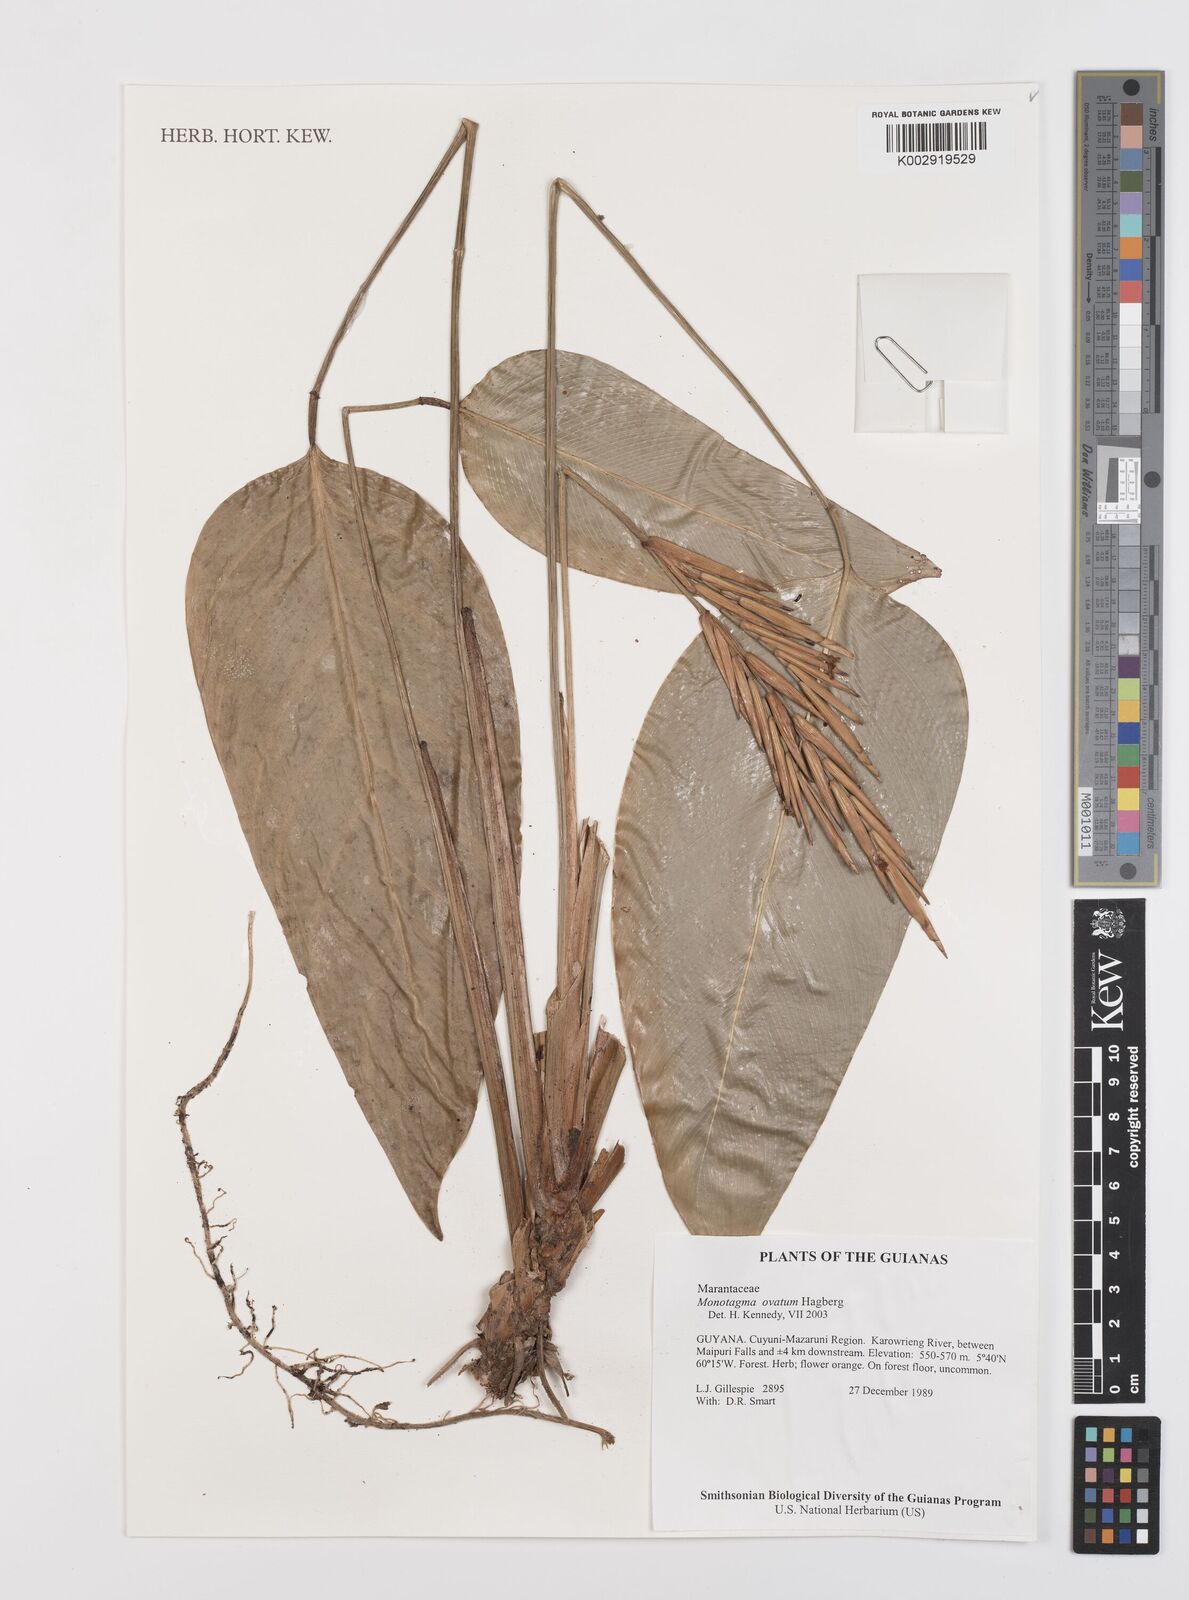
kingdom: Plantae
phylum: Tracheophyta
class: Liliopsida
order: Zingiberales
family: Marantaceae
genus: Monotagma
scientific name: Monotagma ovatum
